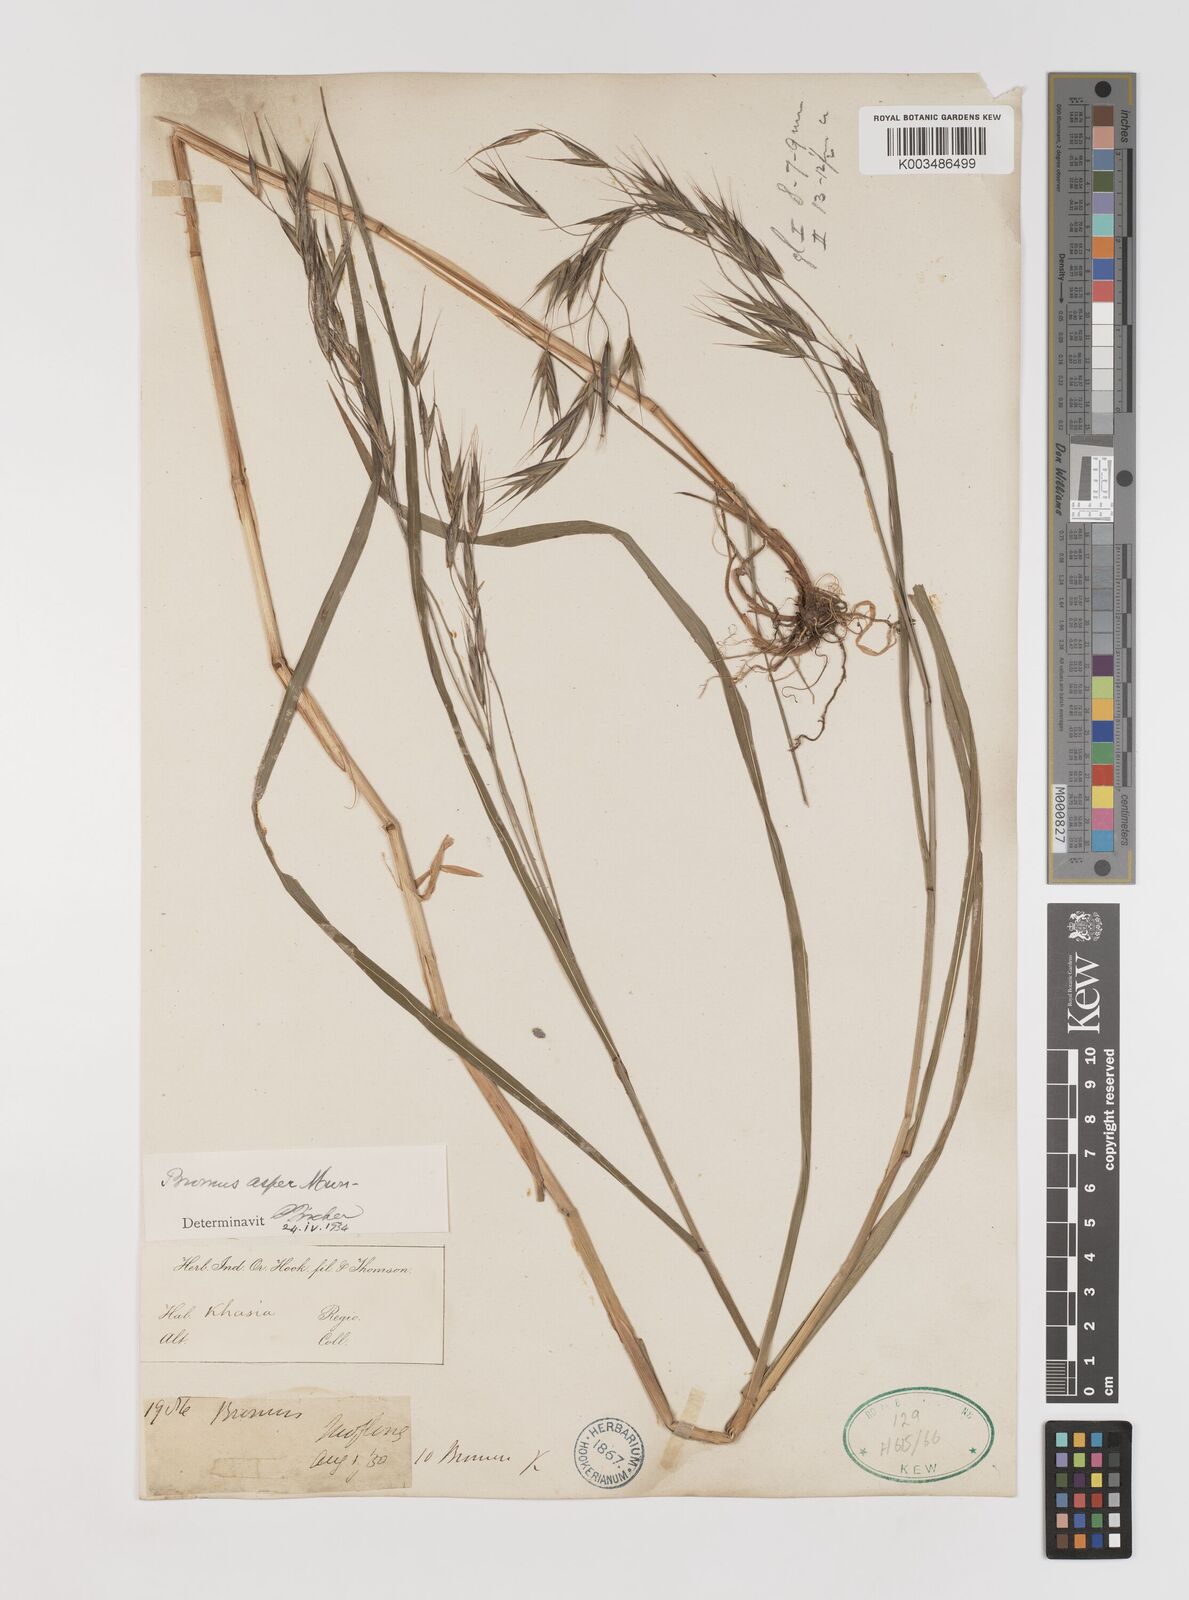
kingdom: Plantae
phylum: Tracheophyta
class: Liliopsida
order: Poales
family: Poaceae
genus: Bromus
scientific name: Bromus himalaicus
